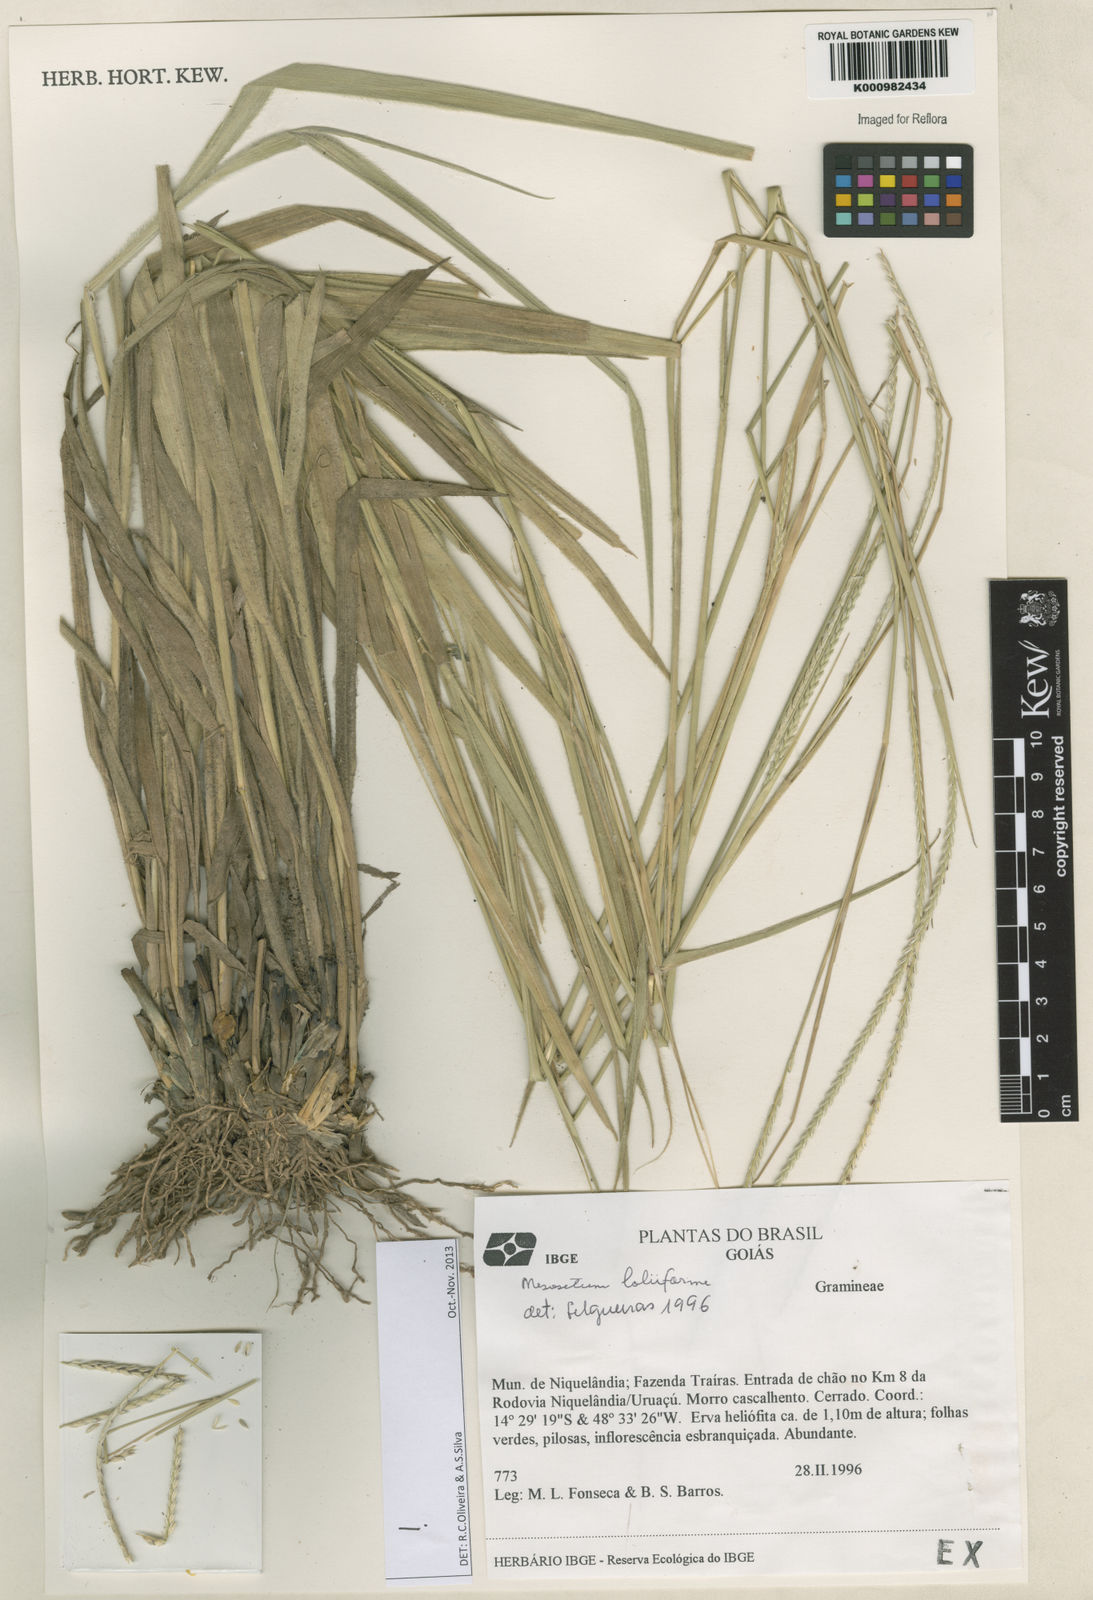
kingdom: Plantae
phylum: Tracheophyta
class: Liliopsida
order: Poales
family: Poaceae
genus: Mesosetum
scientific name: Mesosetum
